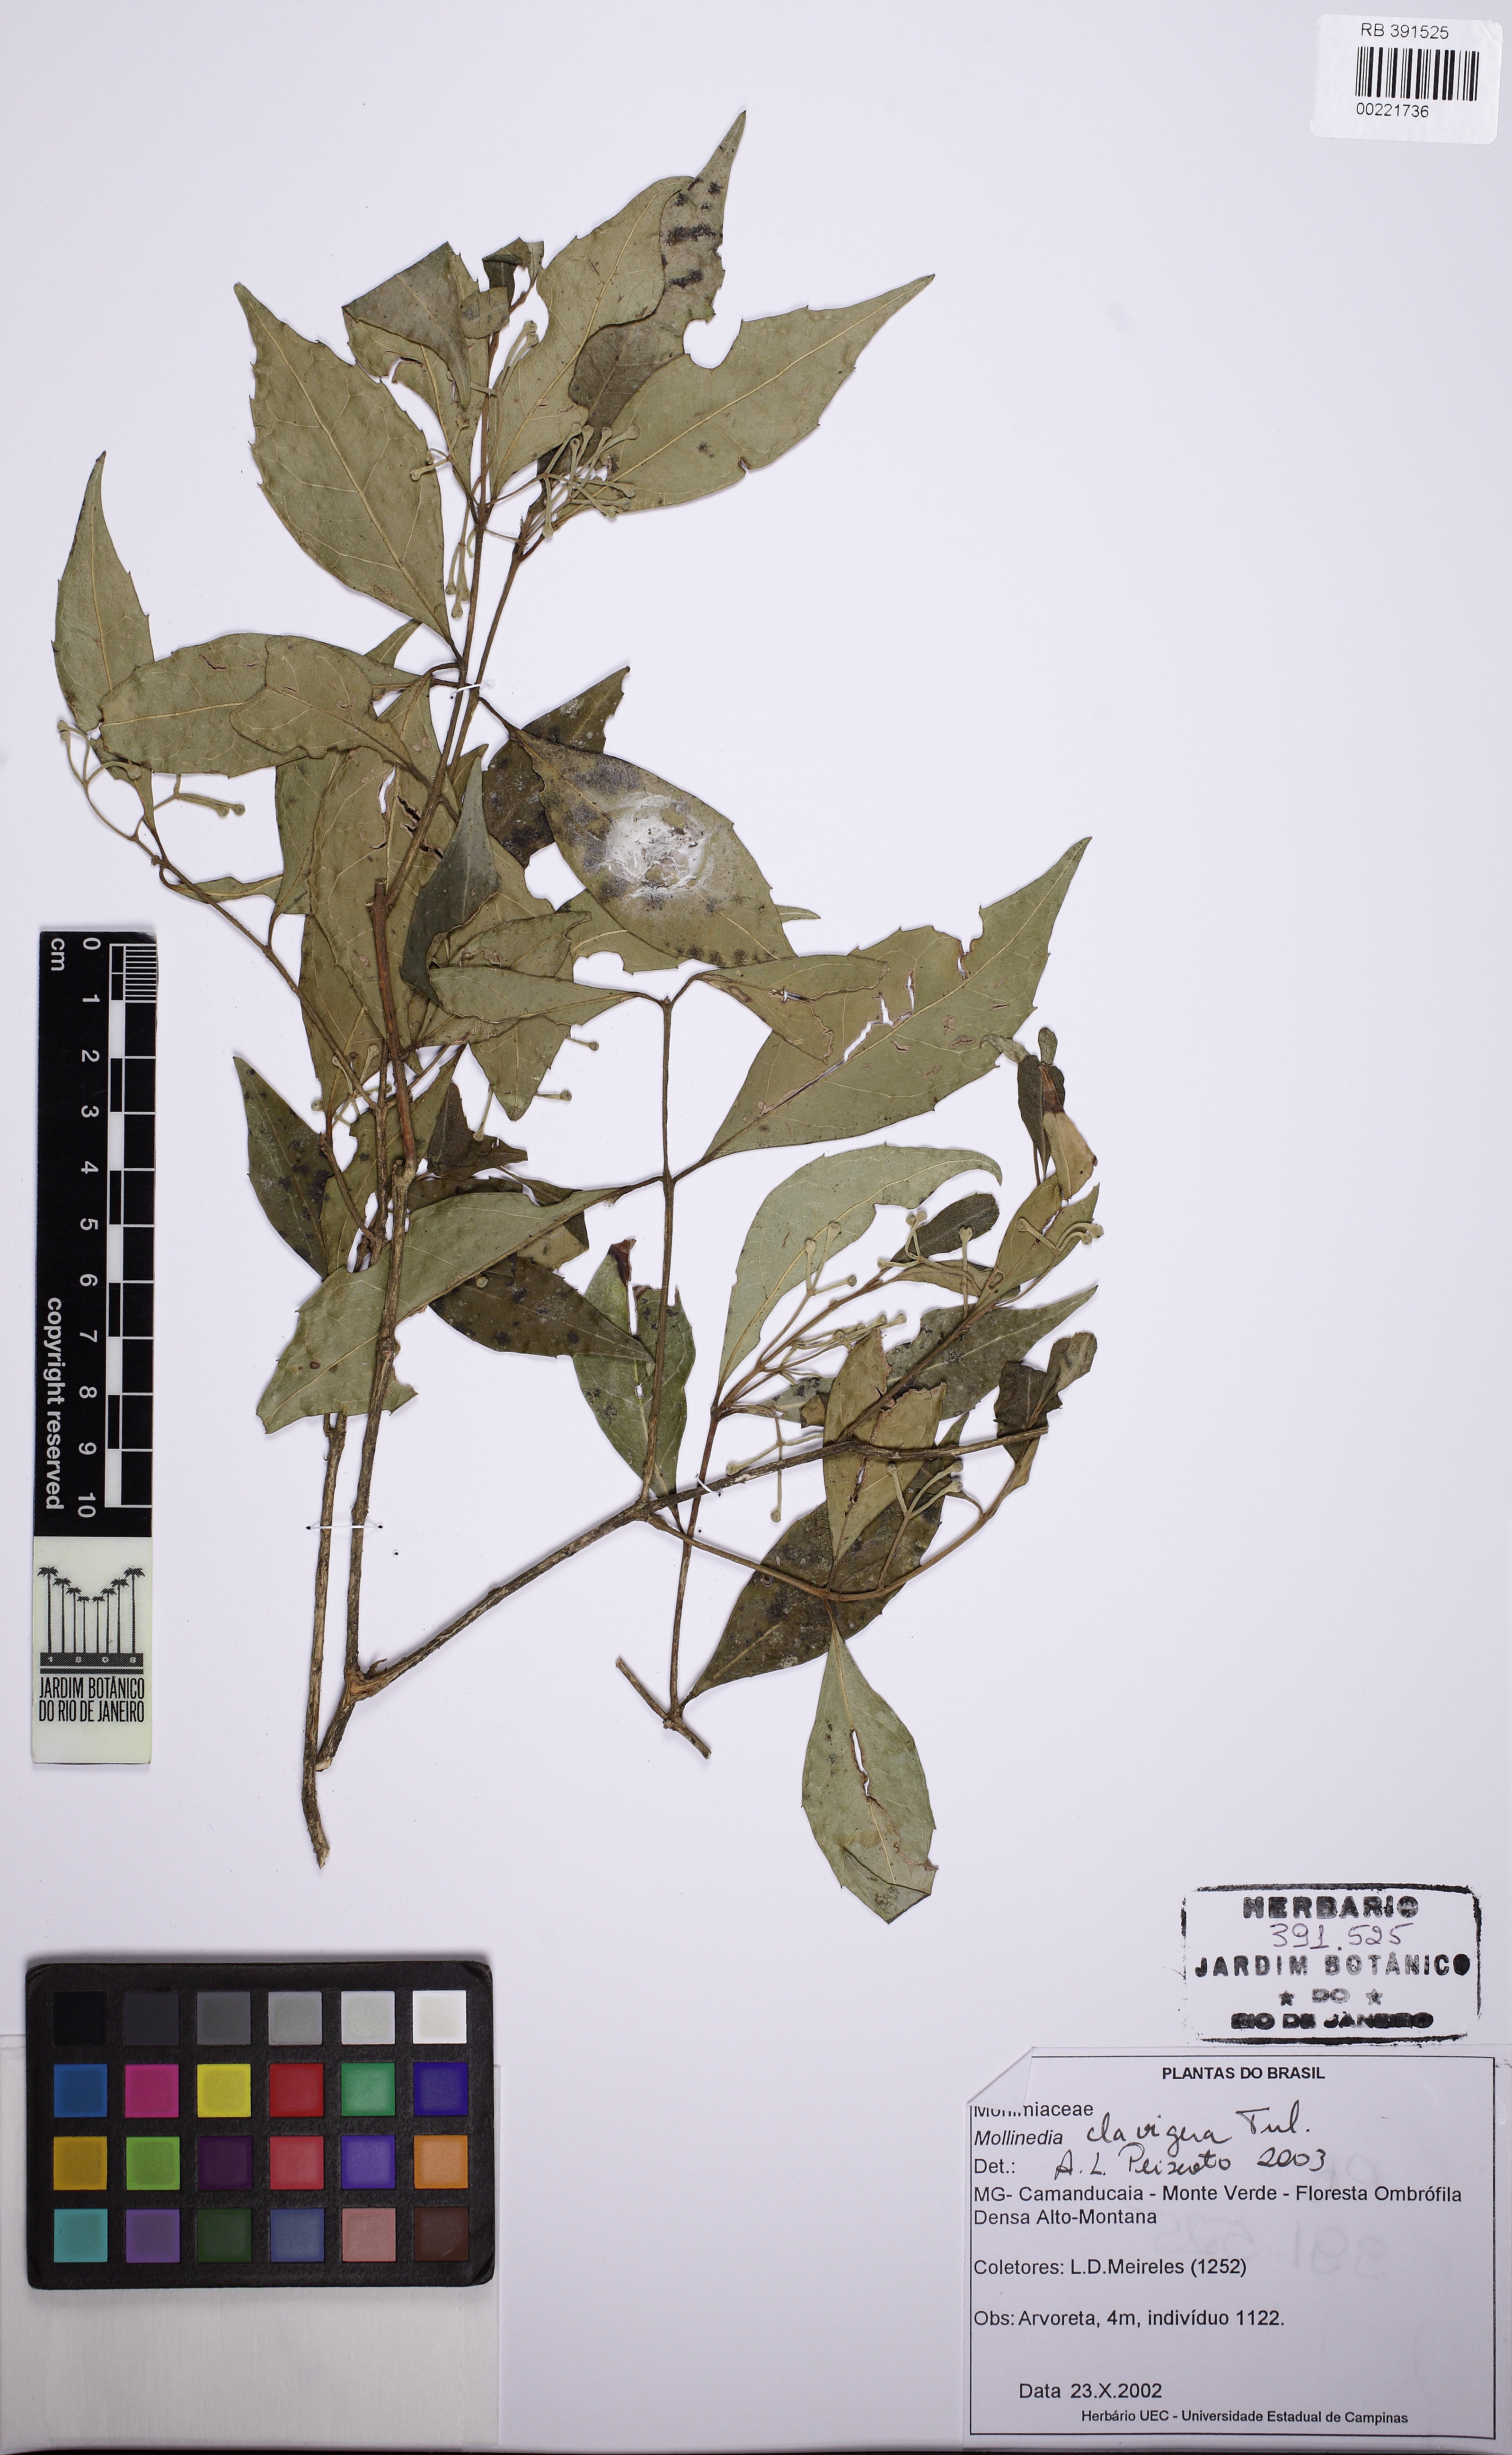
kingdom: Plantae
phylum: Tracheophyta
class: Magnoliopsida
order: Laurales
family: Monimiaceae
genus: Mollinedia
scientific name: Mollinedia clavigera
